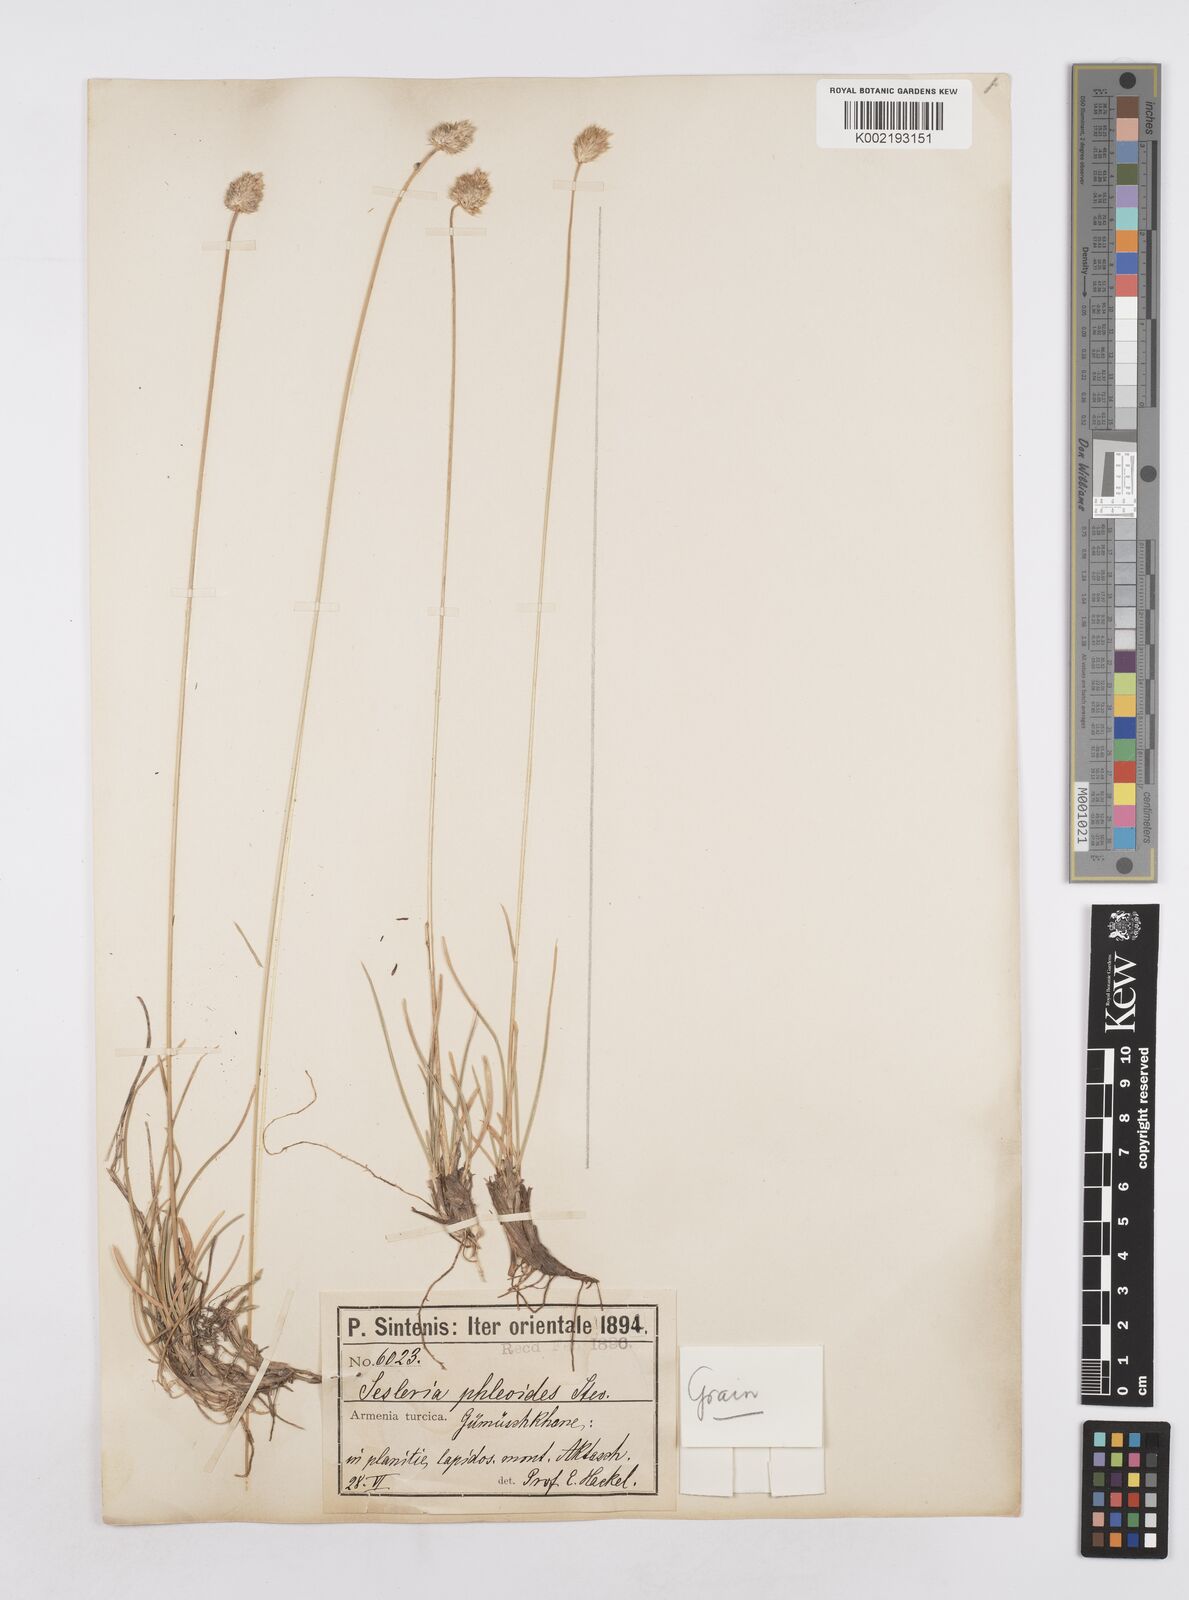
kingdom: Plantae
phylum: Tracheophyta
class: Liliopsida
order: Poales
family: Poaceae
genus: Sesleria
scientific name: Sesleria phleoides
